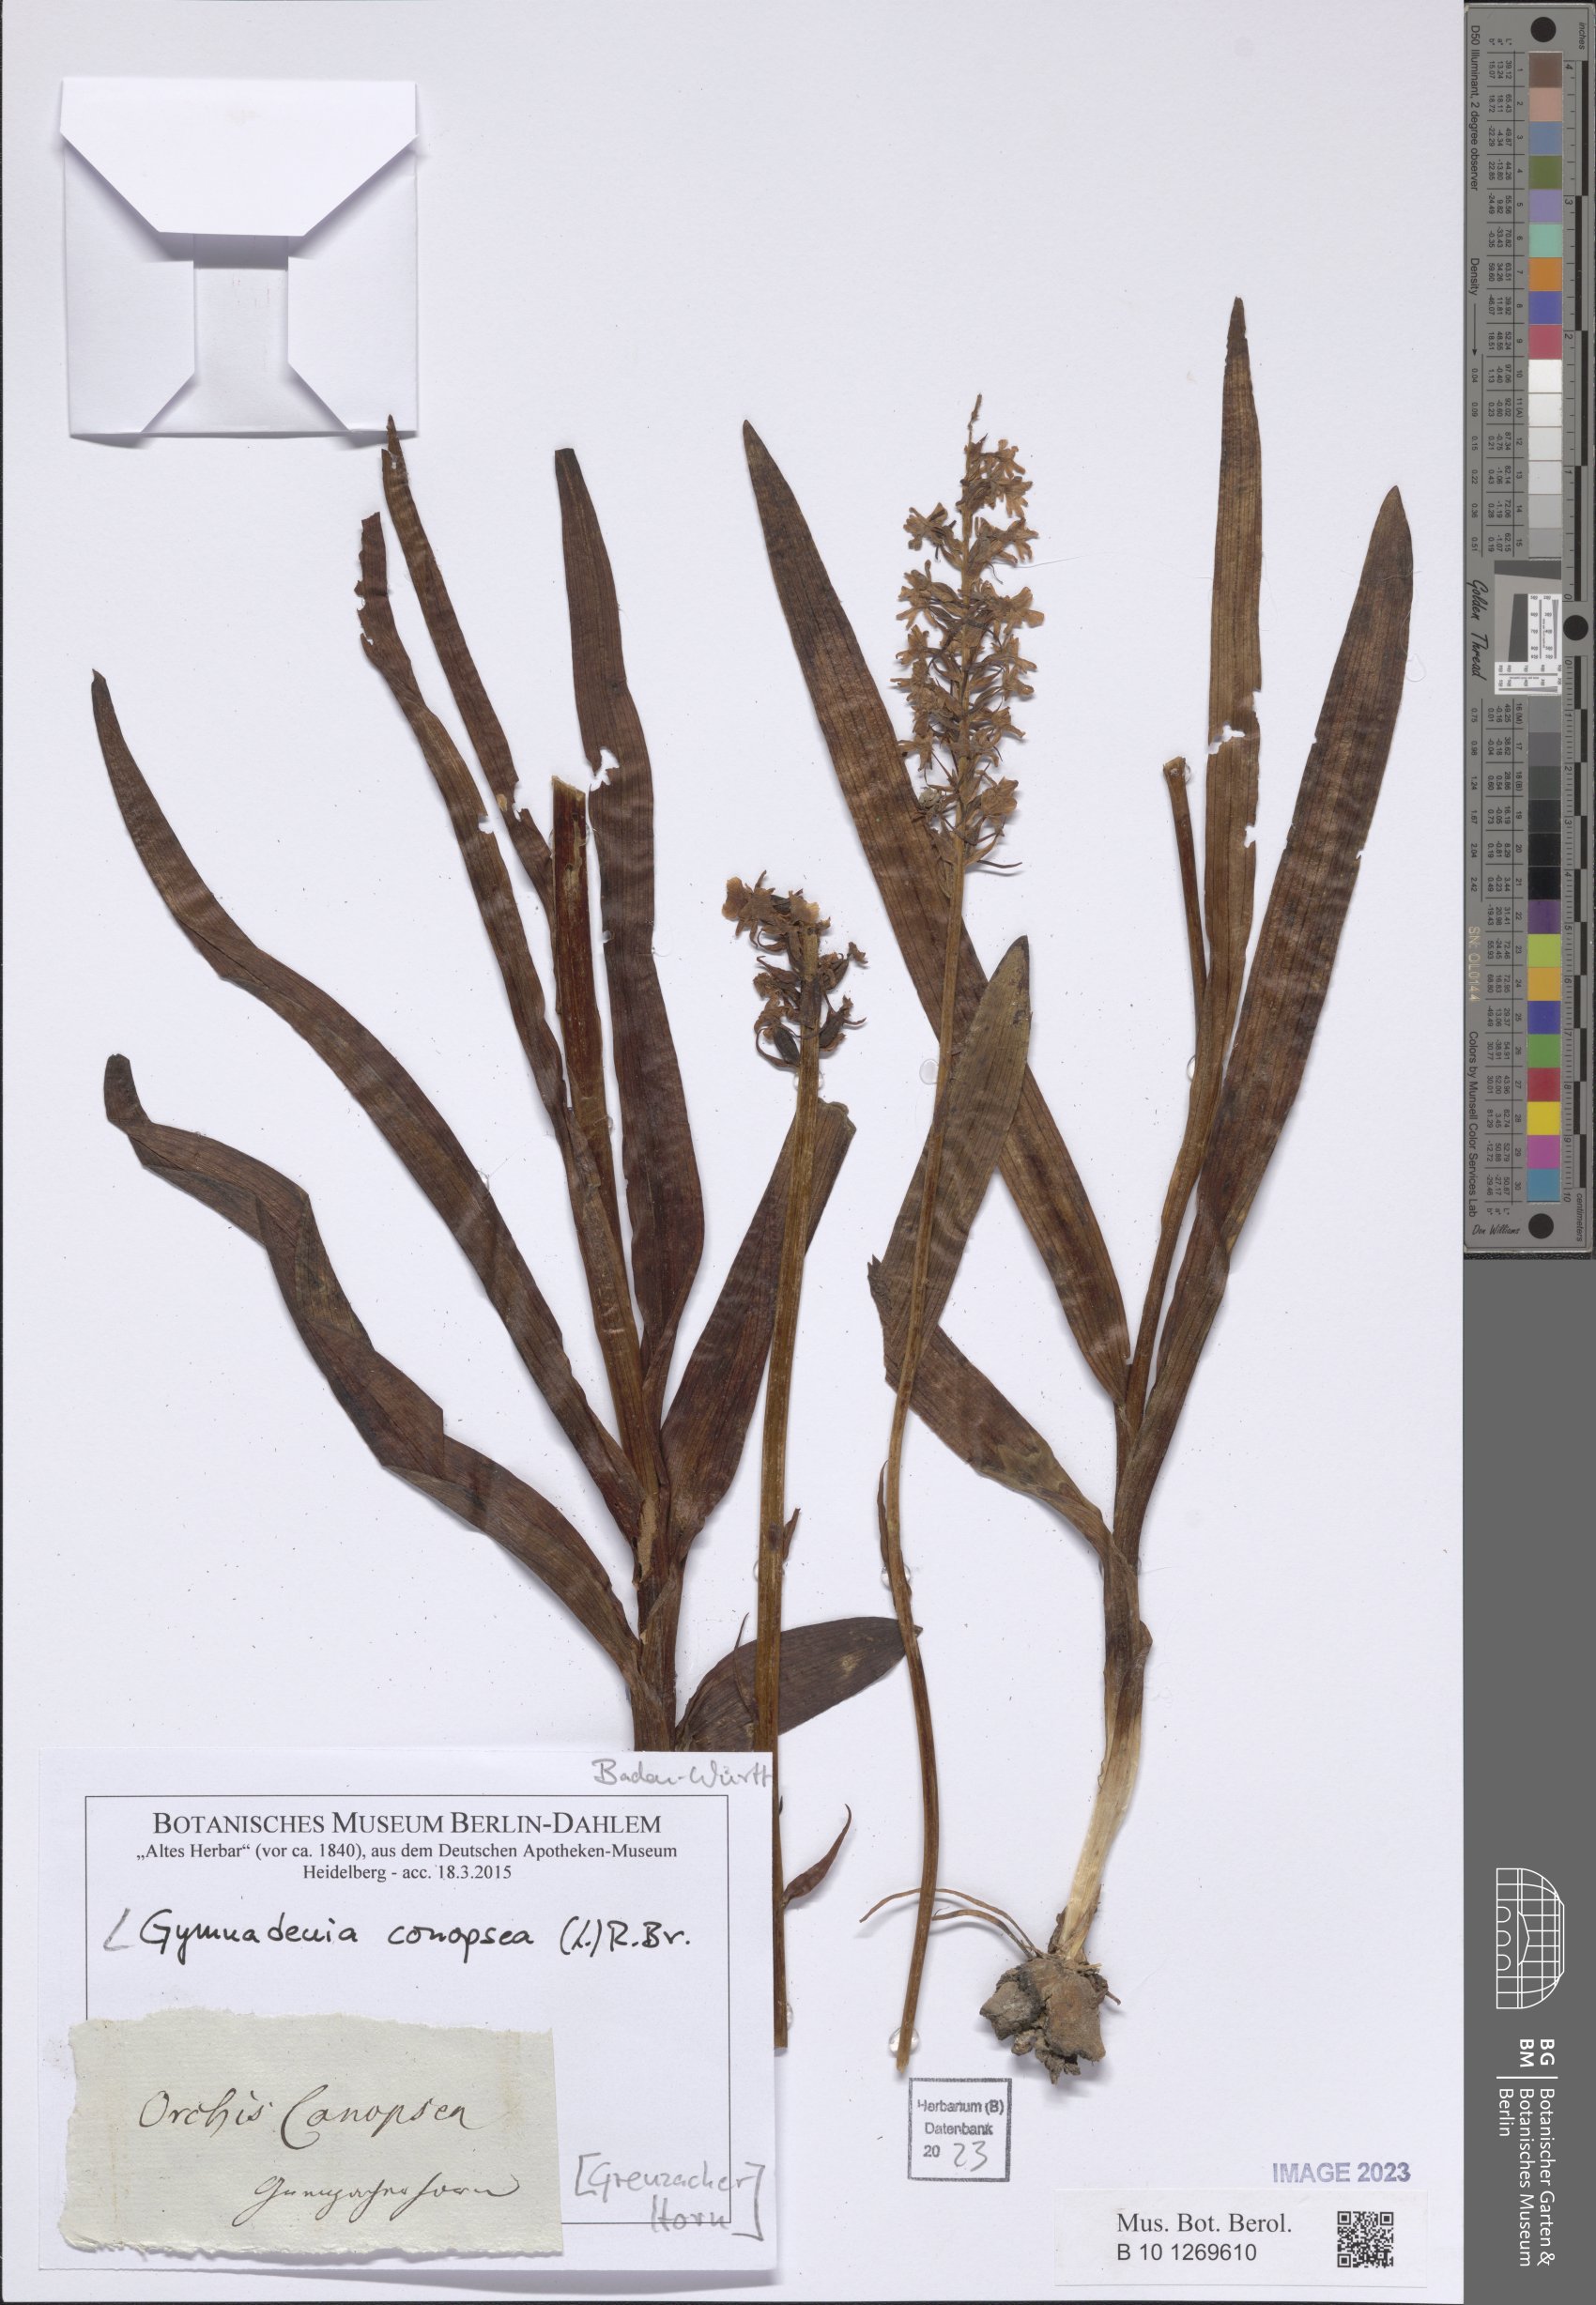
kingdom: Plantae
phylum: Tracheophyta
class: Liliopsida
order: Asparagales
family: Orchidaceae
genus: Gymnadenia
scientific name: Gymnadenia conopsea
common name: Fragrant orchid
